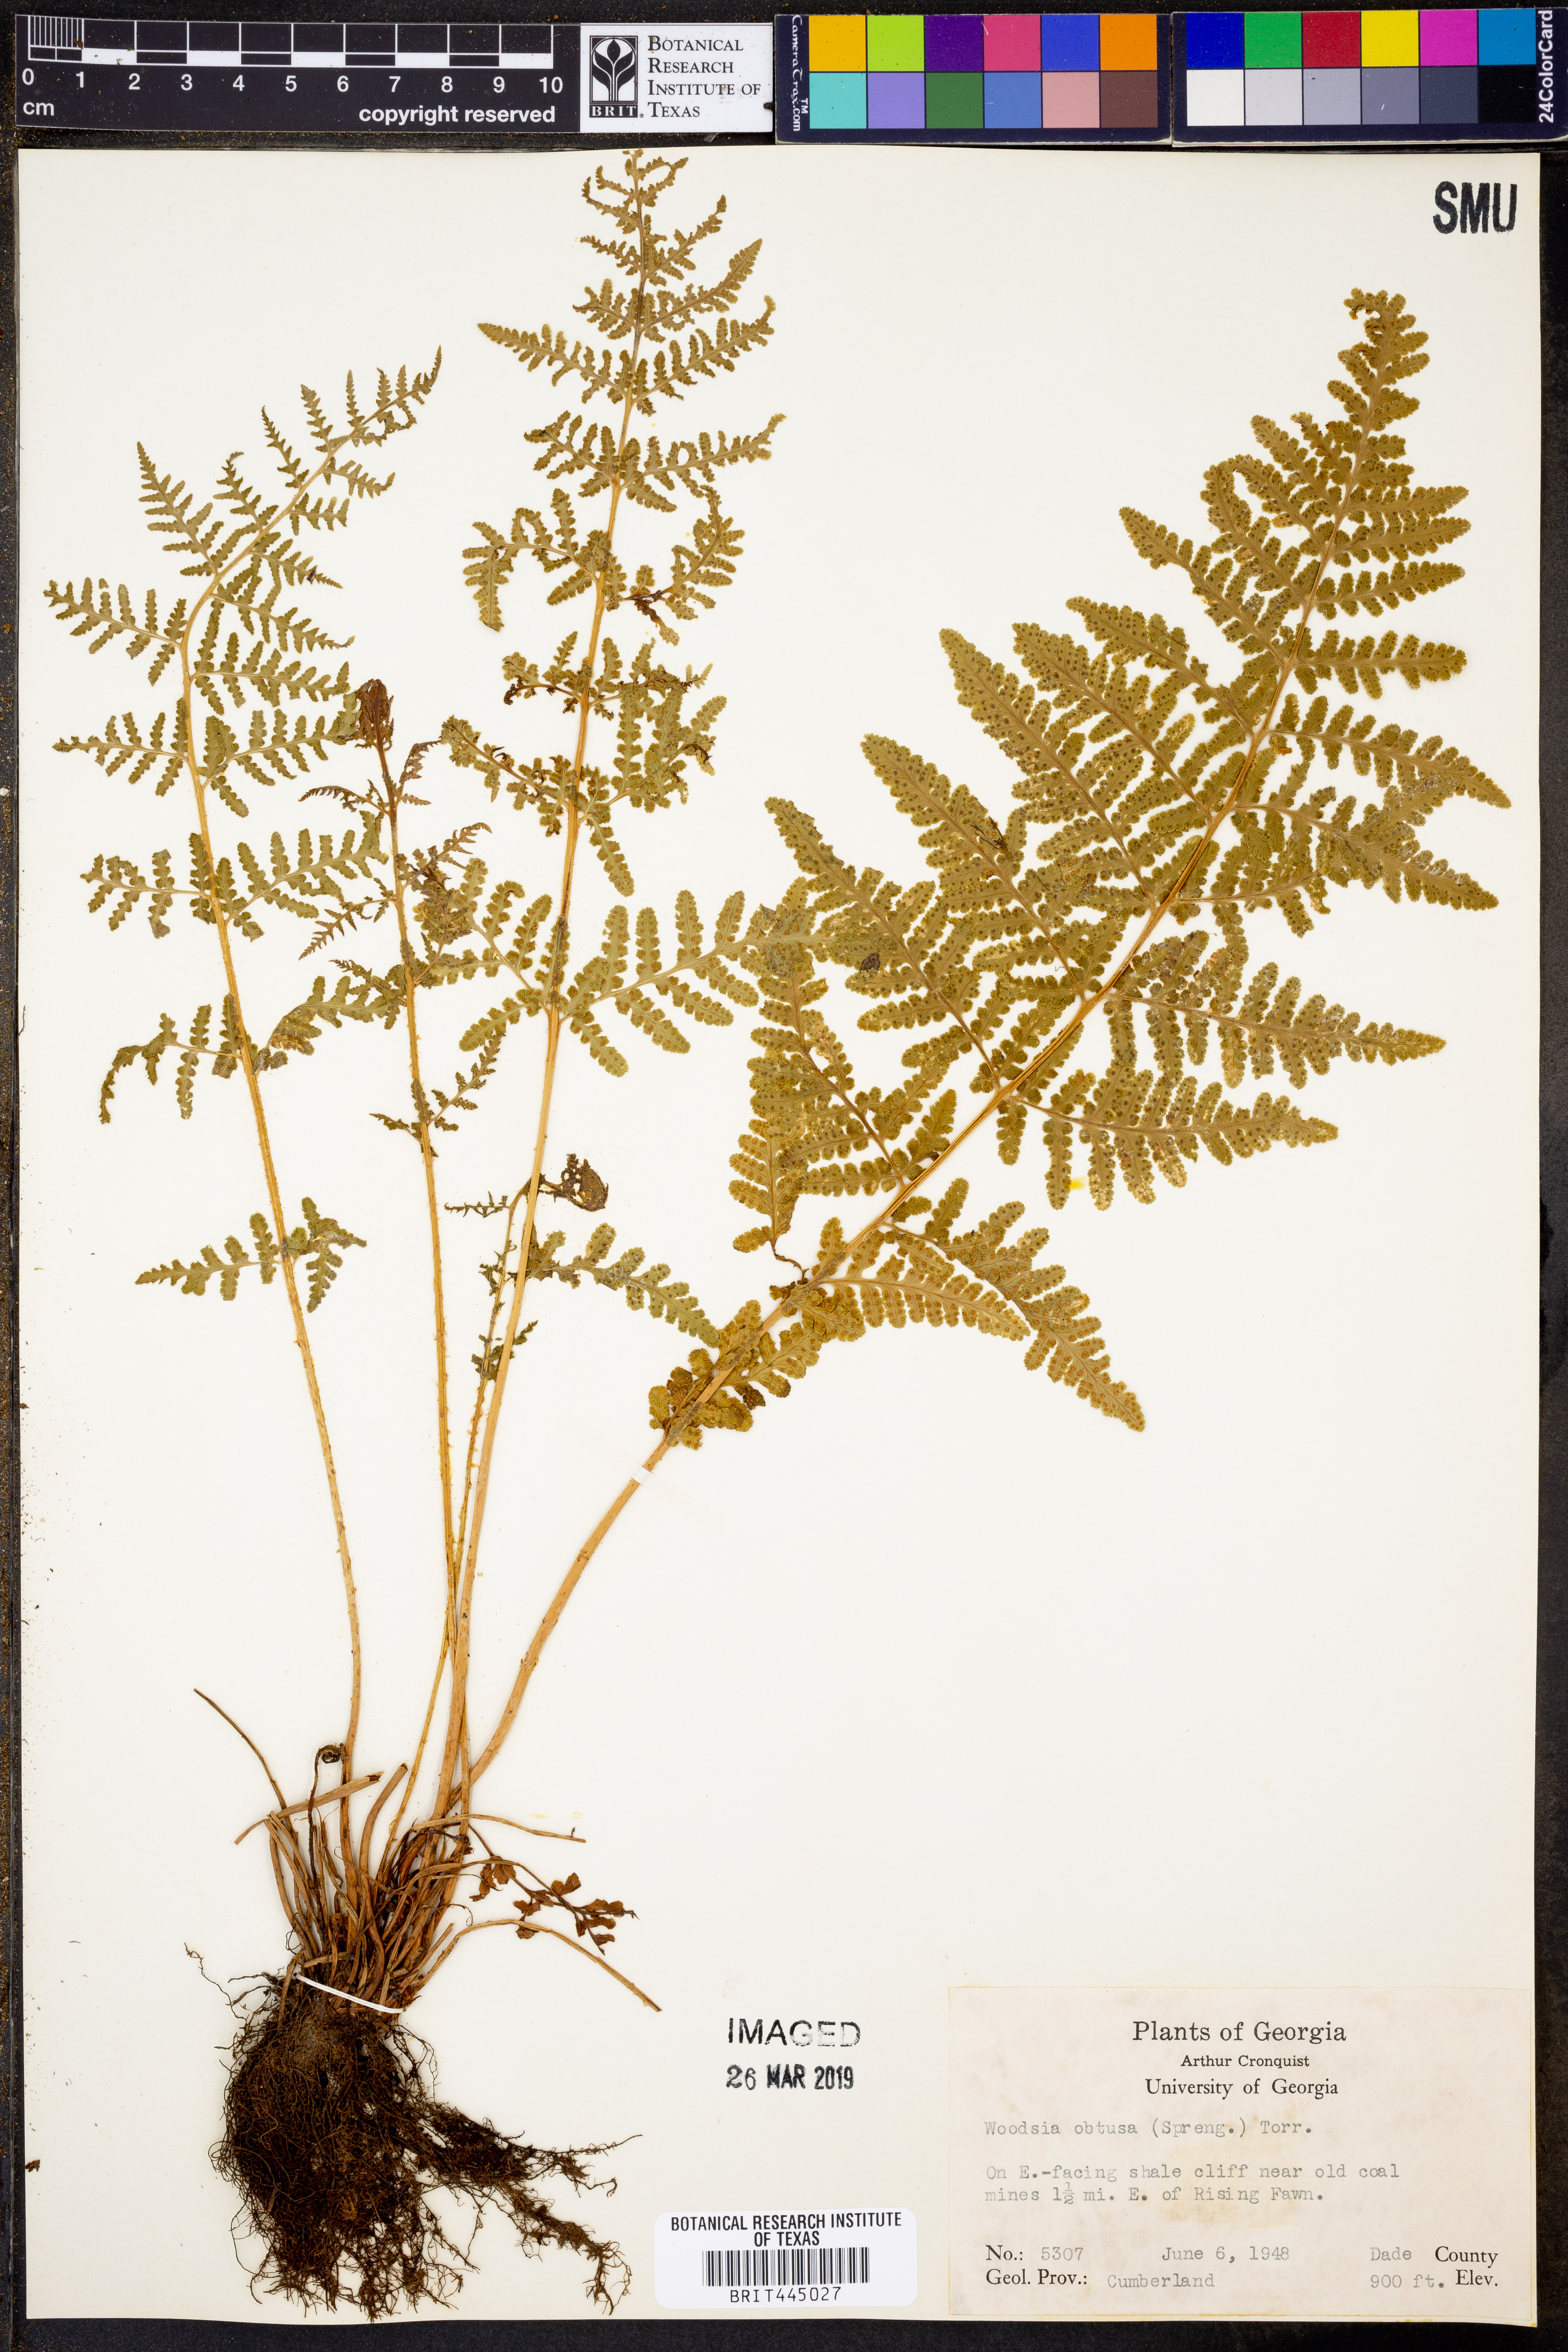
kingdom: Plantae
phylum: Tracheophyta
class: Polypodiopsida
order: Polypodiales
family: Woodsiaceae
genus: Physematium
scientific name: Physematium obtusum
